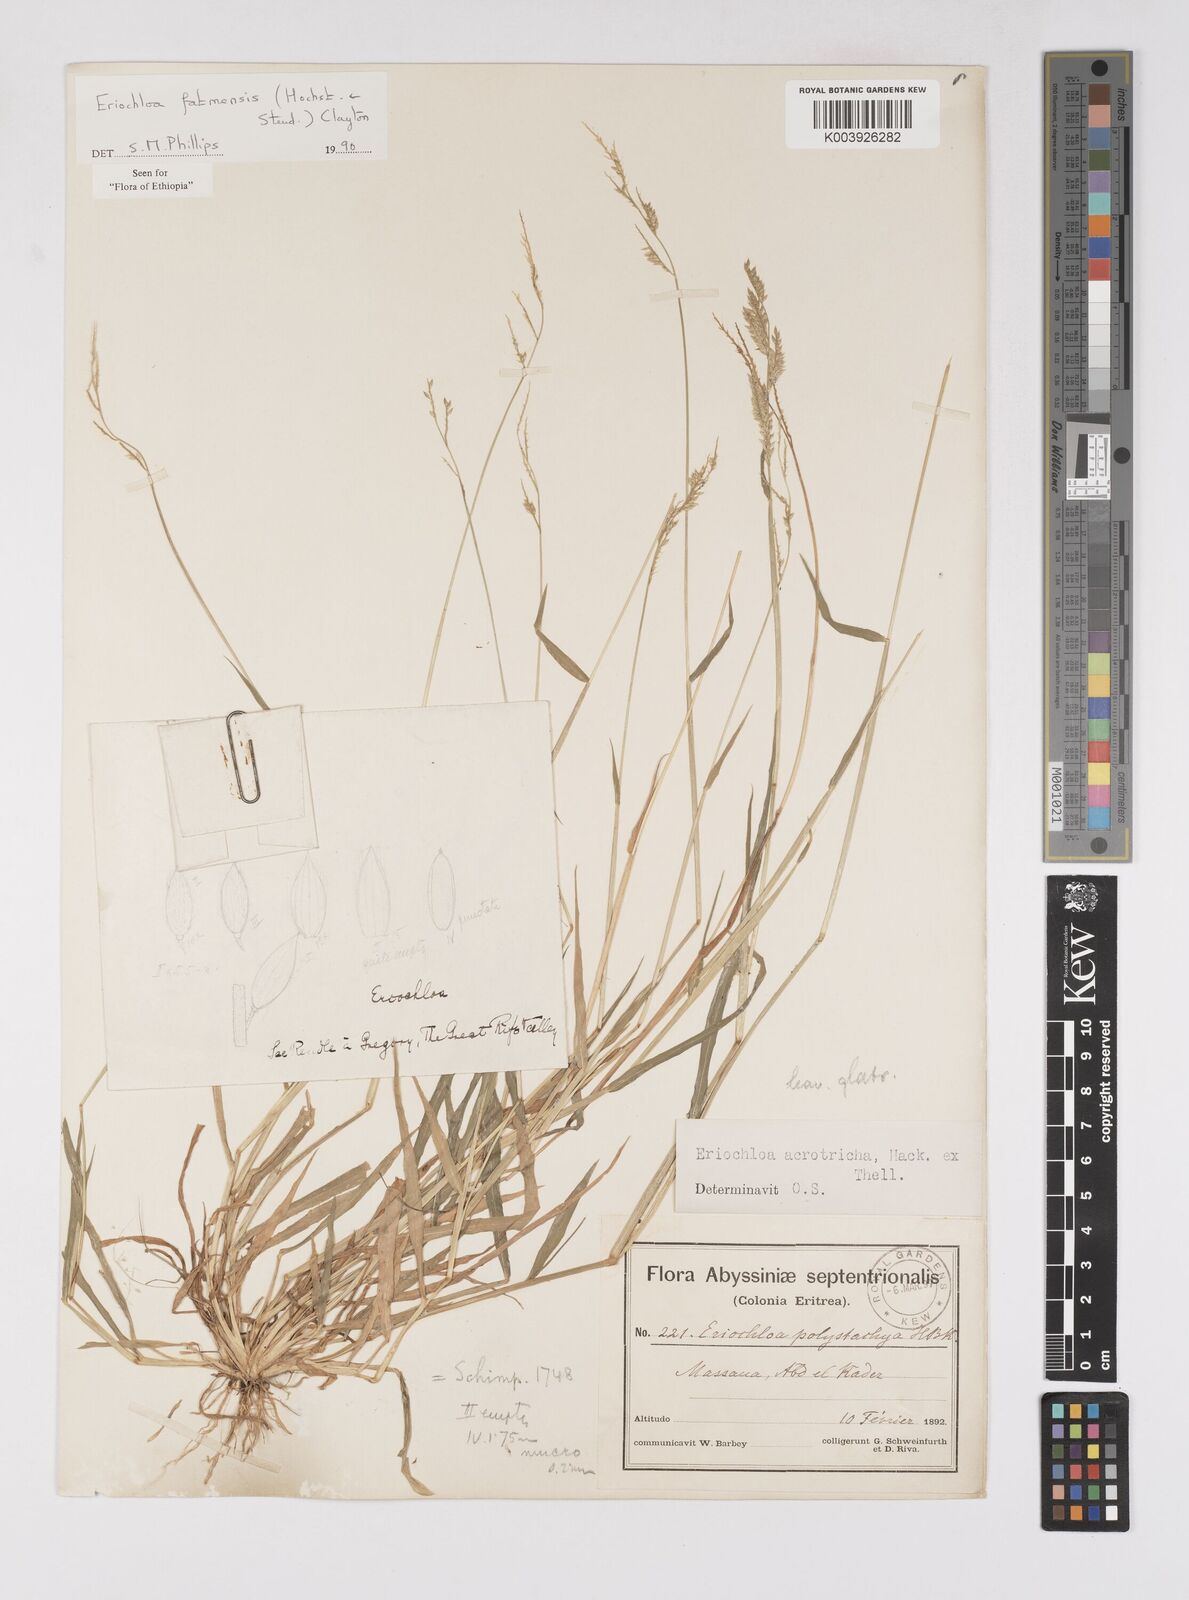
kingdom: Plantae
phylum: Tracheophyta
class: Liliopsida
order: Poales
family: Poaceae
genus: Eriochloa
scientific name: Eriochloa barbatus
